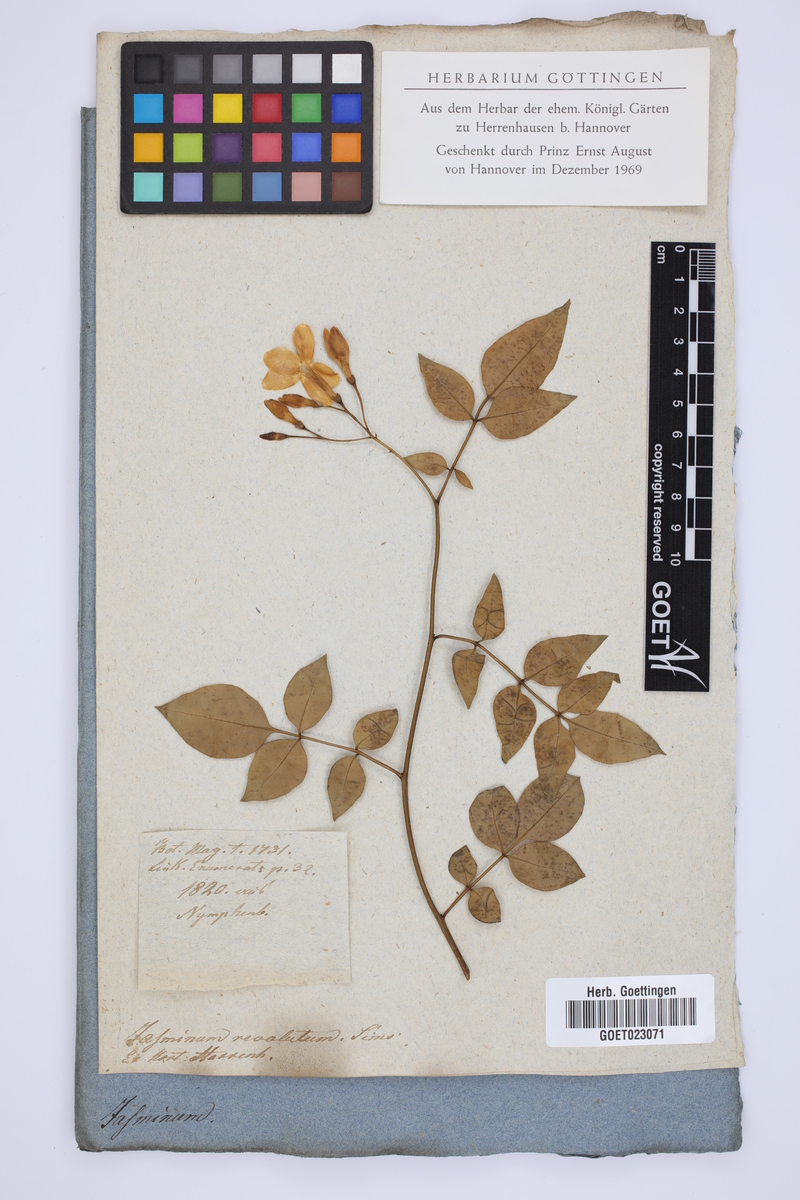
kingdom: Plantae
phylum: Tracheophyta
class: Magnoliopsida
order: Lamiales
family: Oleaceae
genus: Chrysojasminum
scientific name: Chrysojasminum humile
